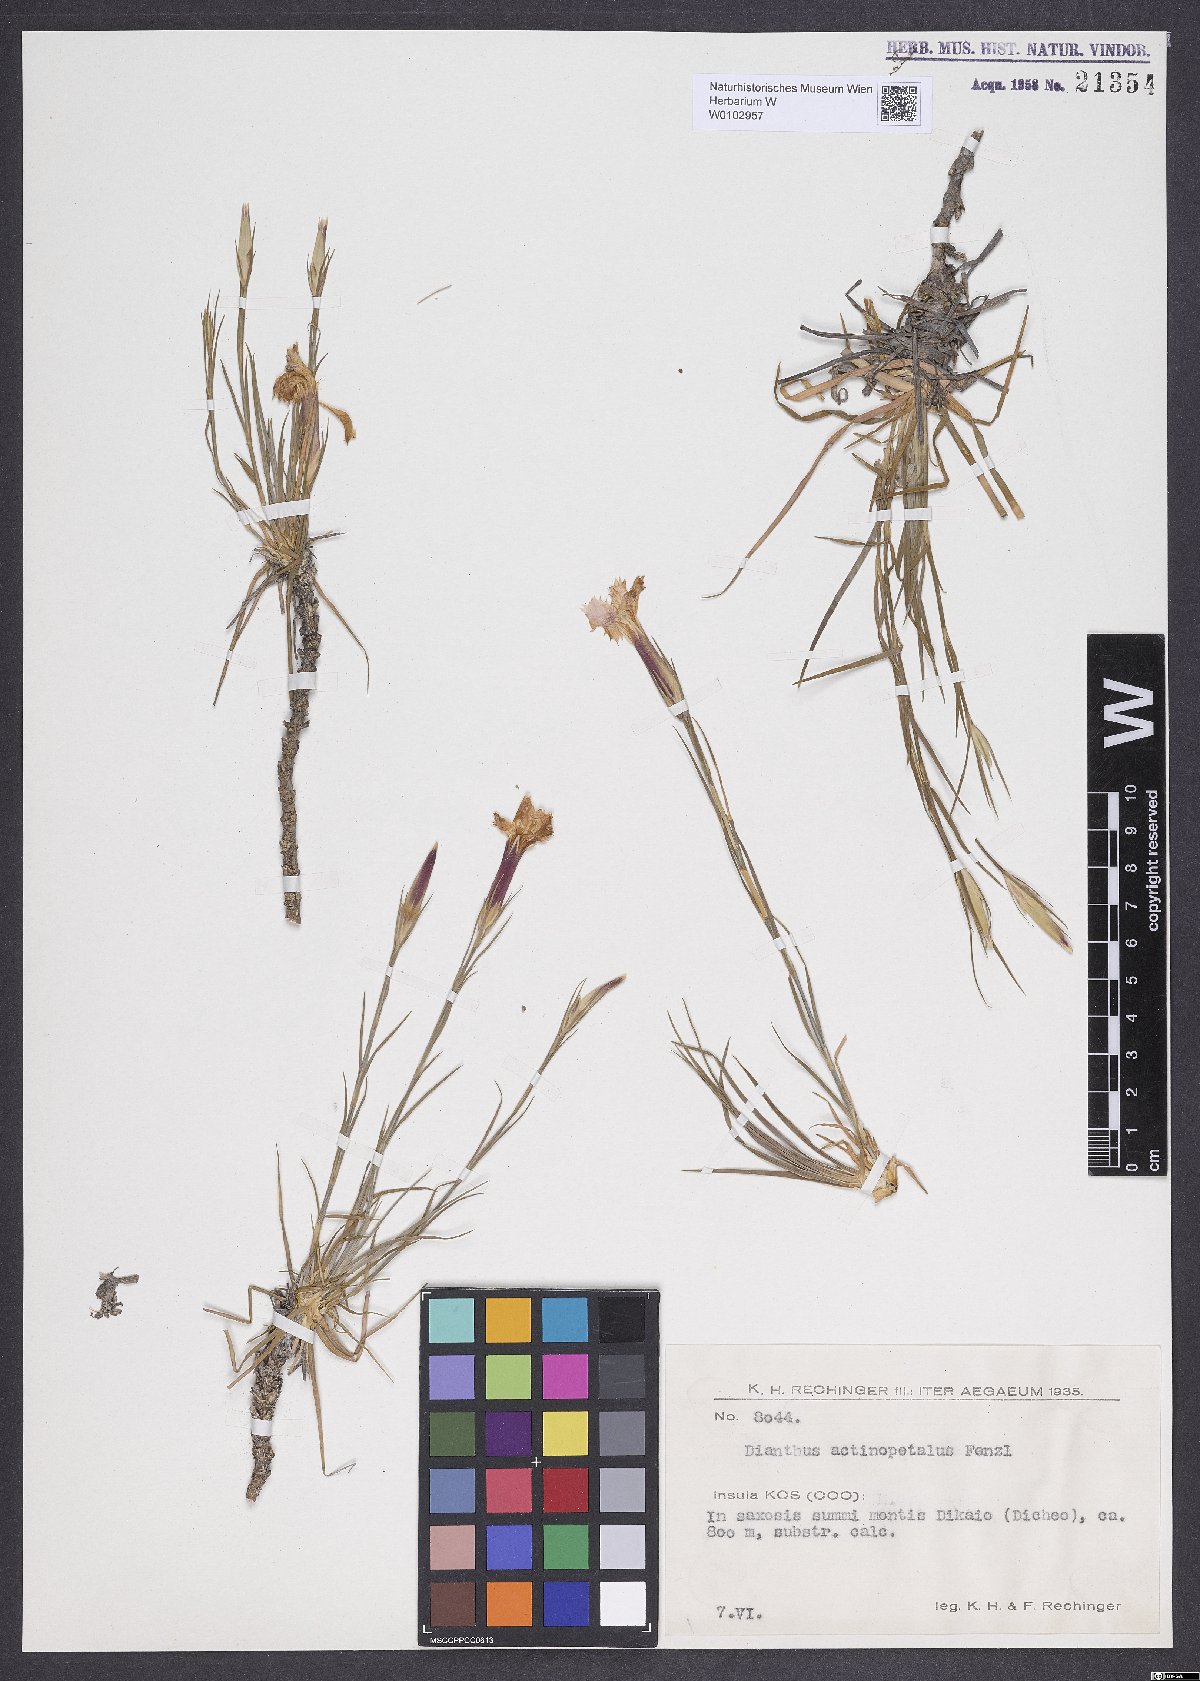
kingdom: Plantae
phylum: Tracheophyta
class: Magnoliopsida
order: Caryophyllales
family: Caryophyllaceae
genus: Dianthus
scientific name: Dianthus elegans
